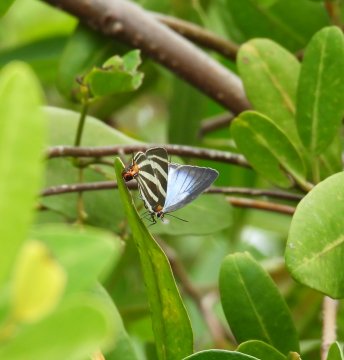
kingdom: Animalia
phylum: Arthropoda
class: Insecta
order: Lepidoptera
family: Lycaenidae
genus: Thecla
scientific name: Thecla bathildis
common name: Zebra-striped Hairstreak
